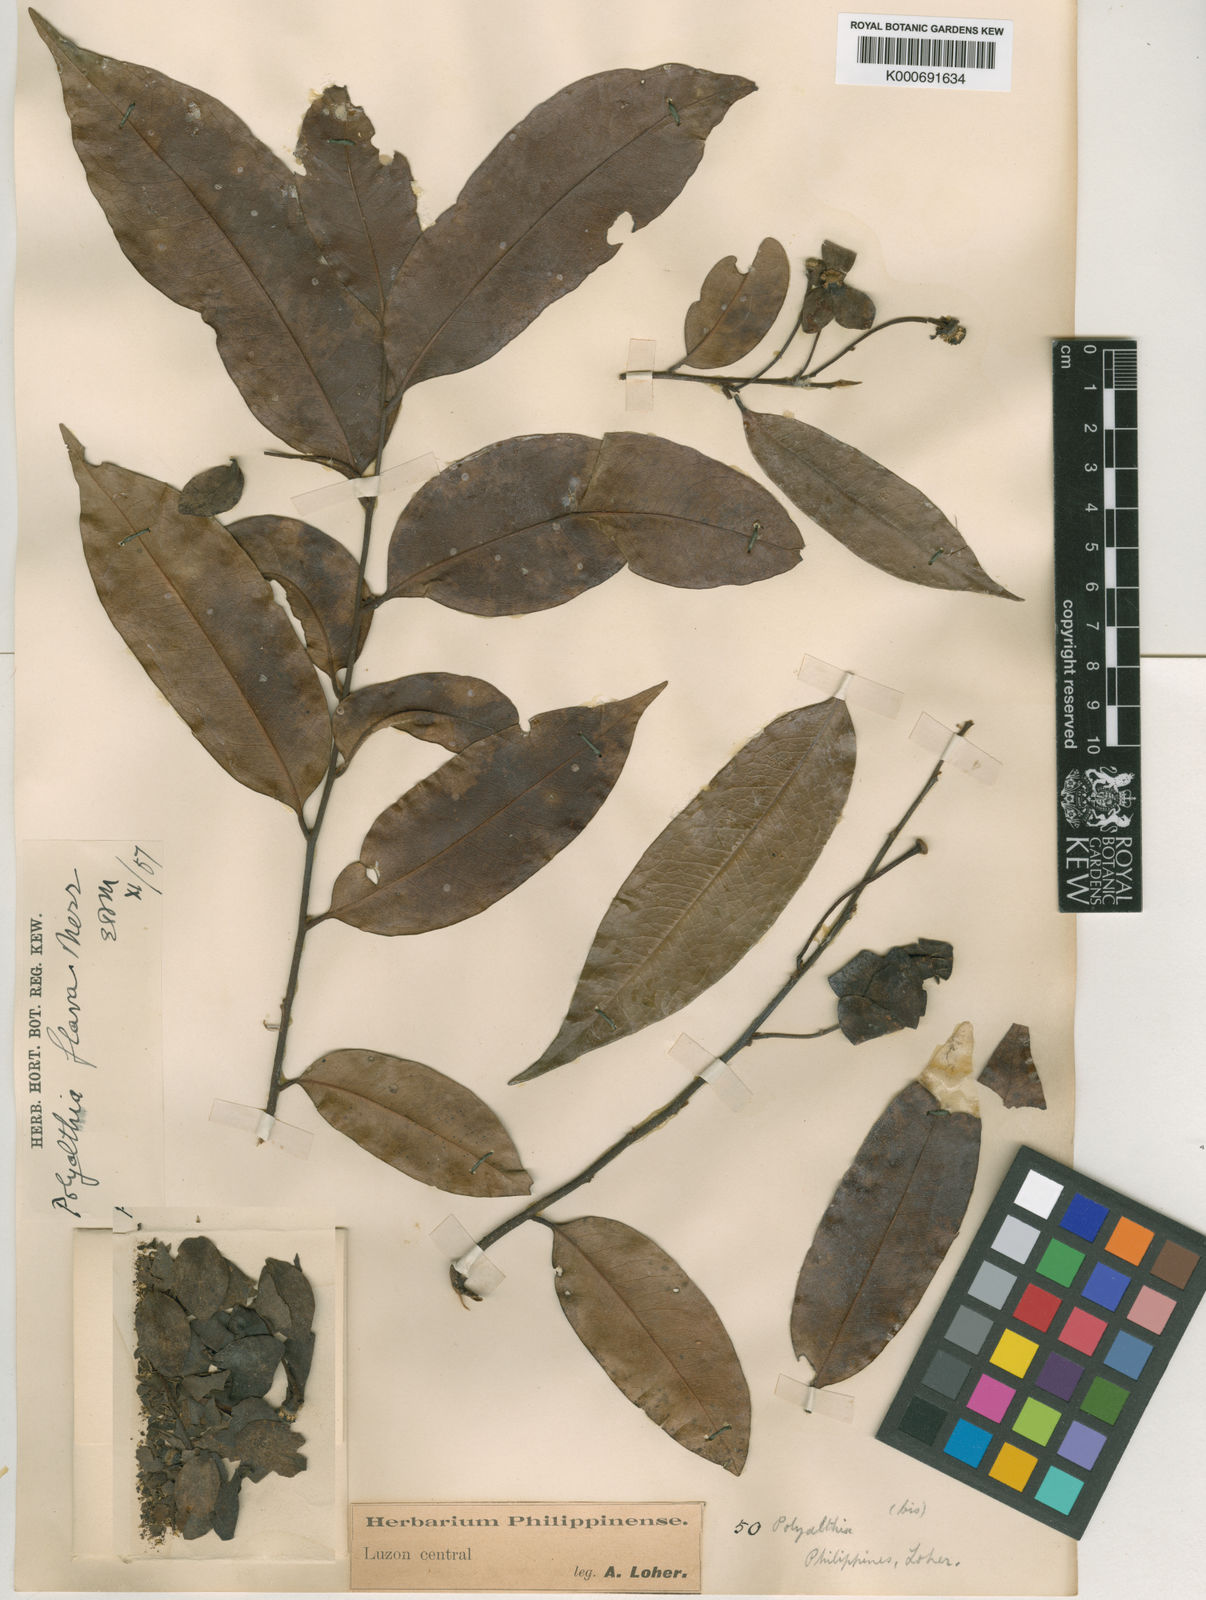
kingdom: Plantae
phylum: Tracheophyta
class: Magnoliopsida
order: Magnoliales
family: Annonaceae
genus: Polyalthia
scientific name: Polyalthia flava
